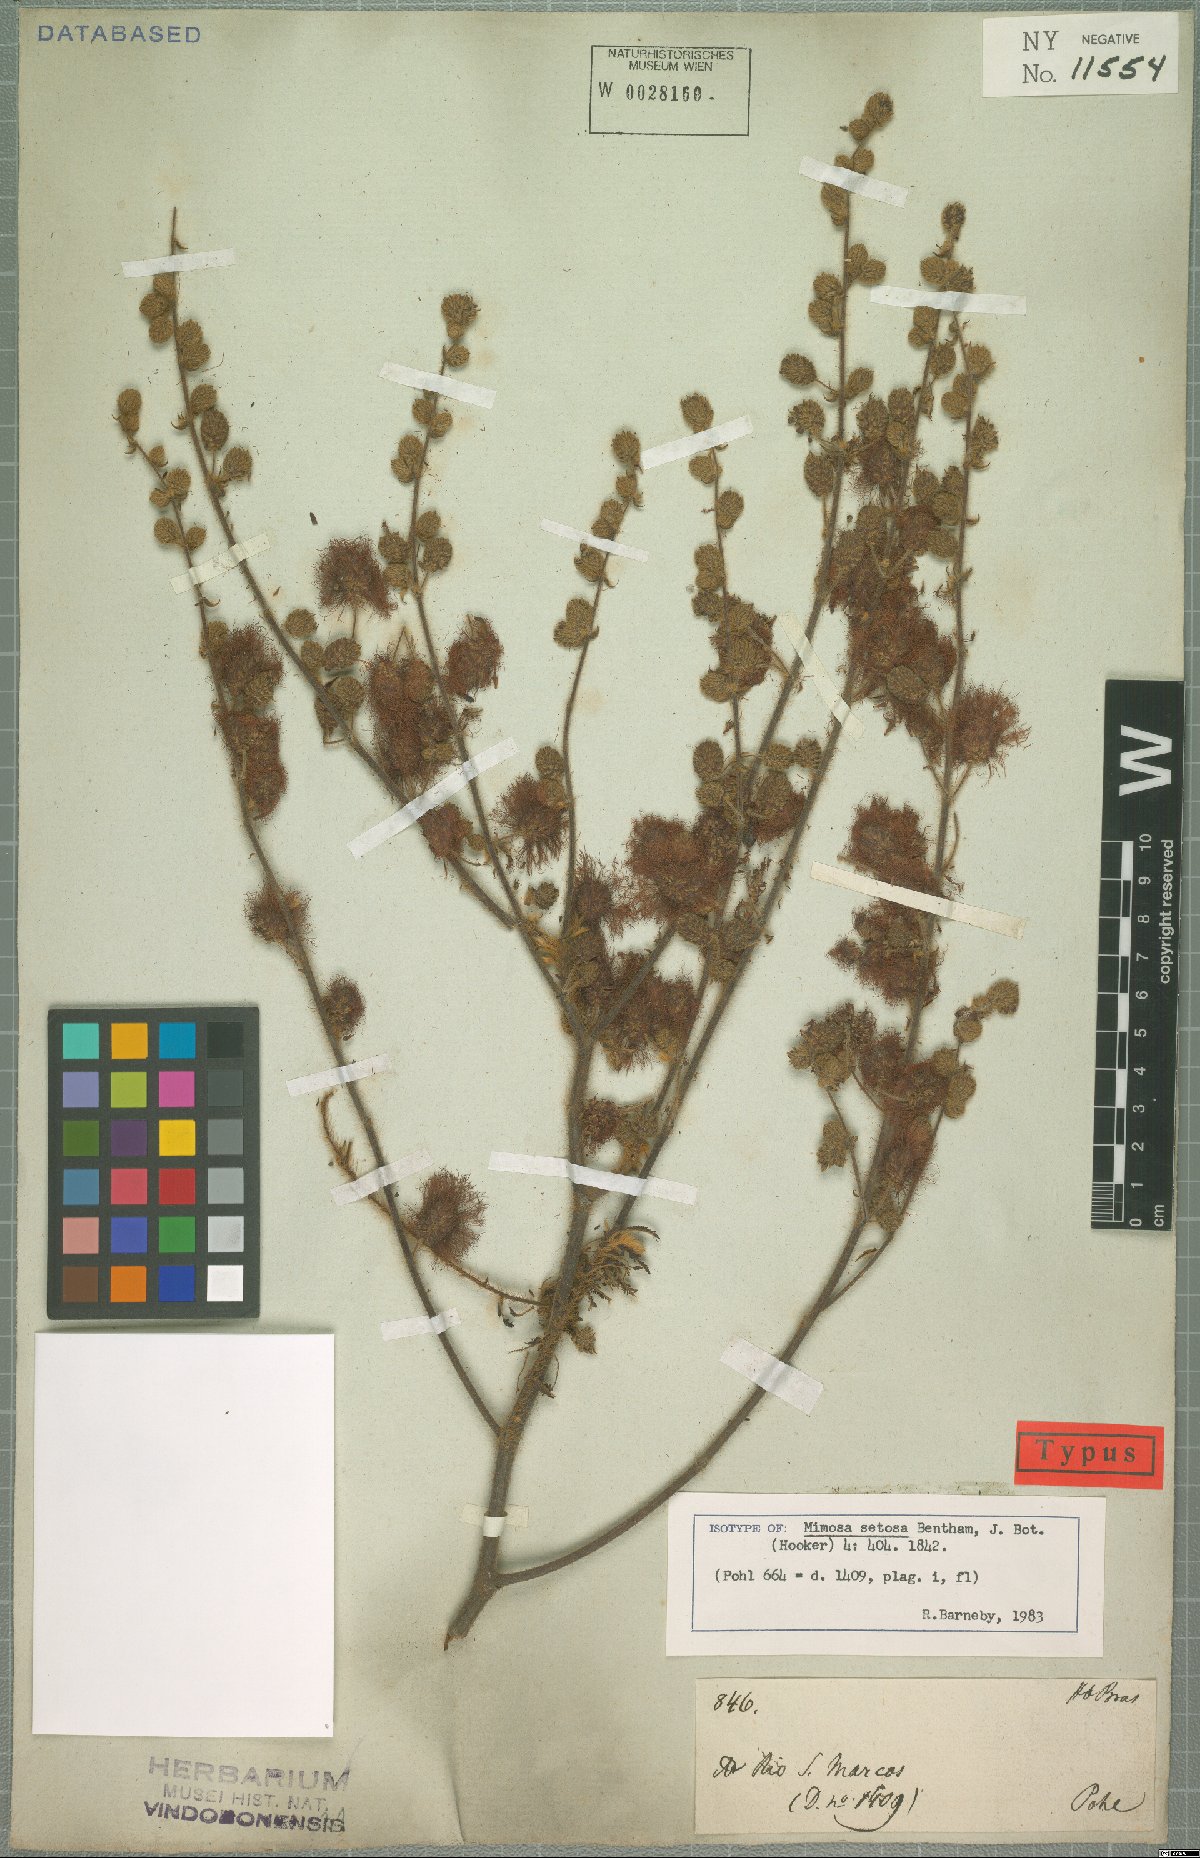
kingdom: Plantae
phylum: Tracheophyta
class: Magnoliopsida
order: Fabales
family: Fabaceae
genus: Mimosa
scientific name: Mimosa setosa
